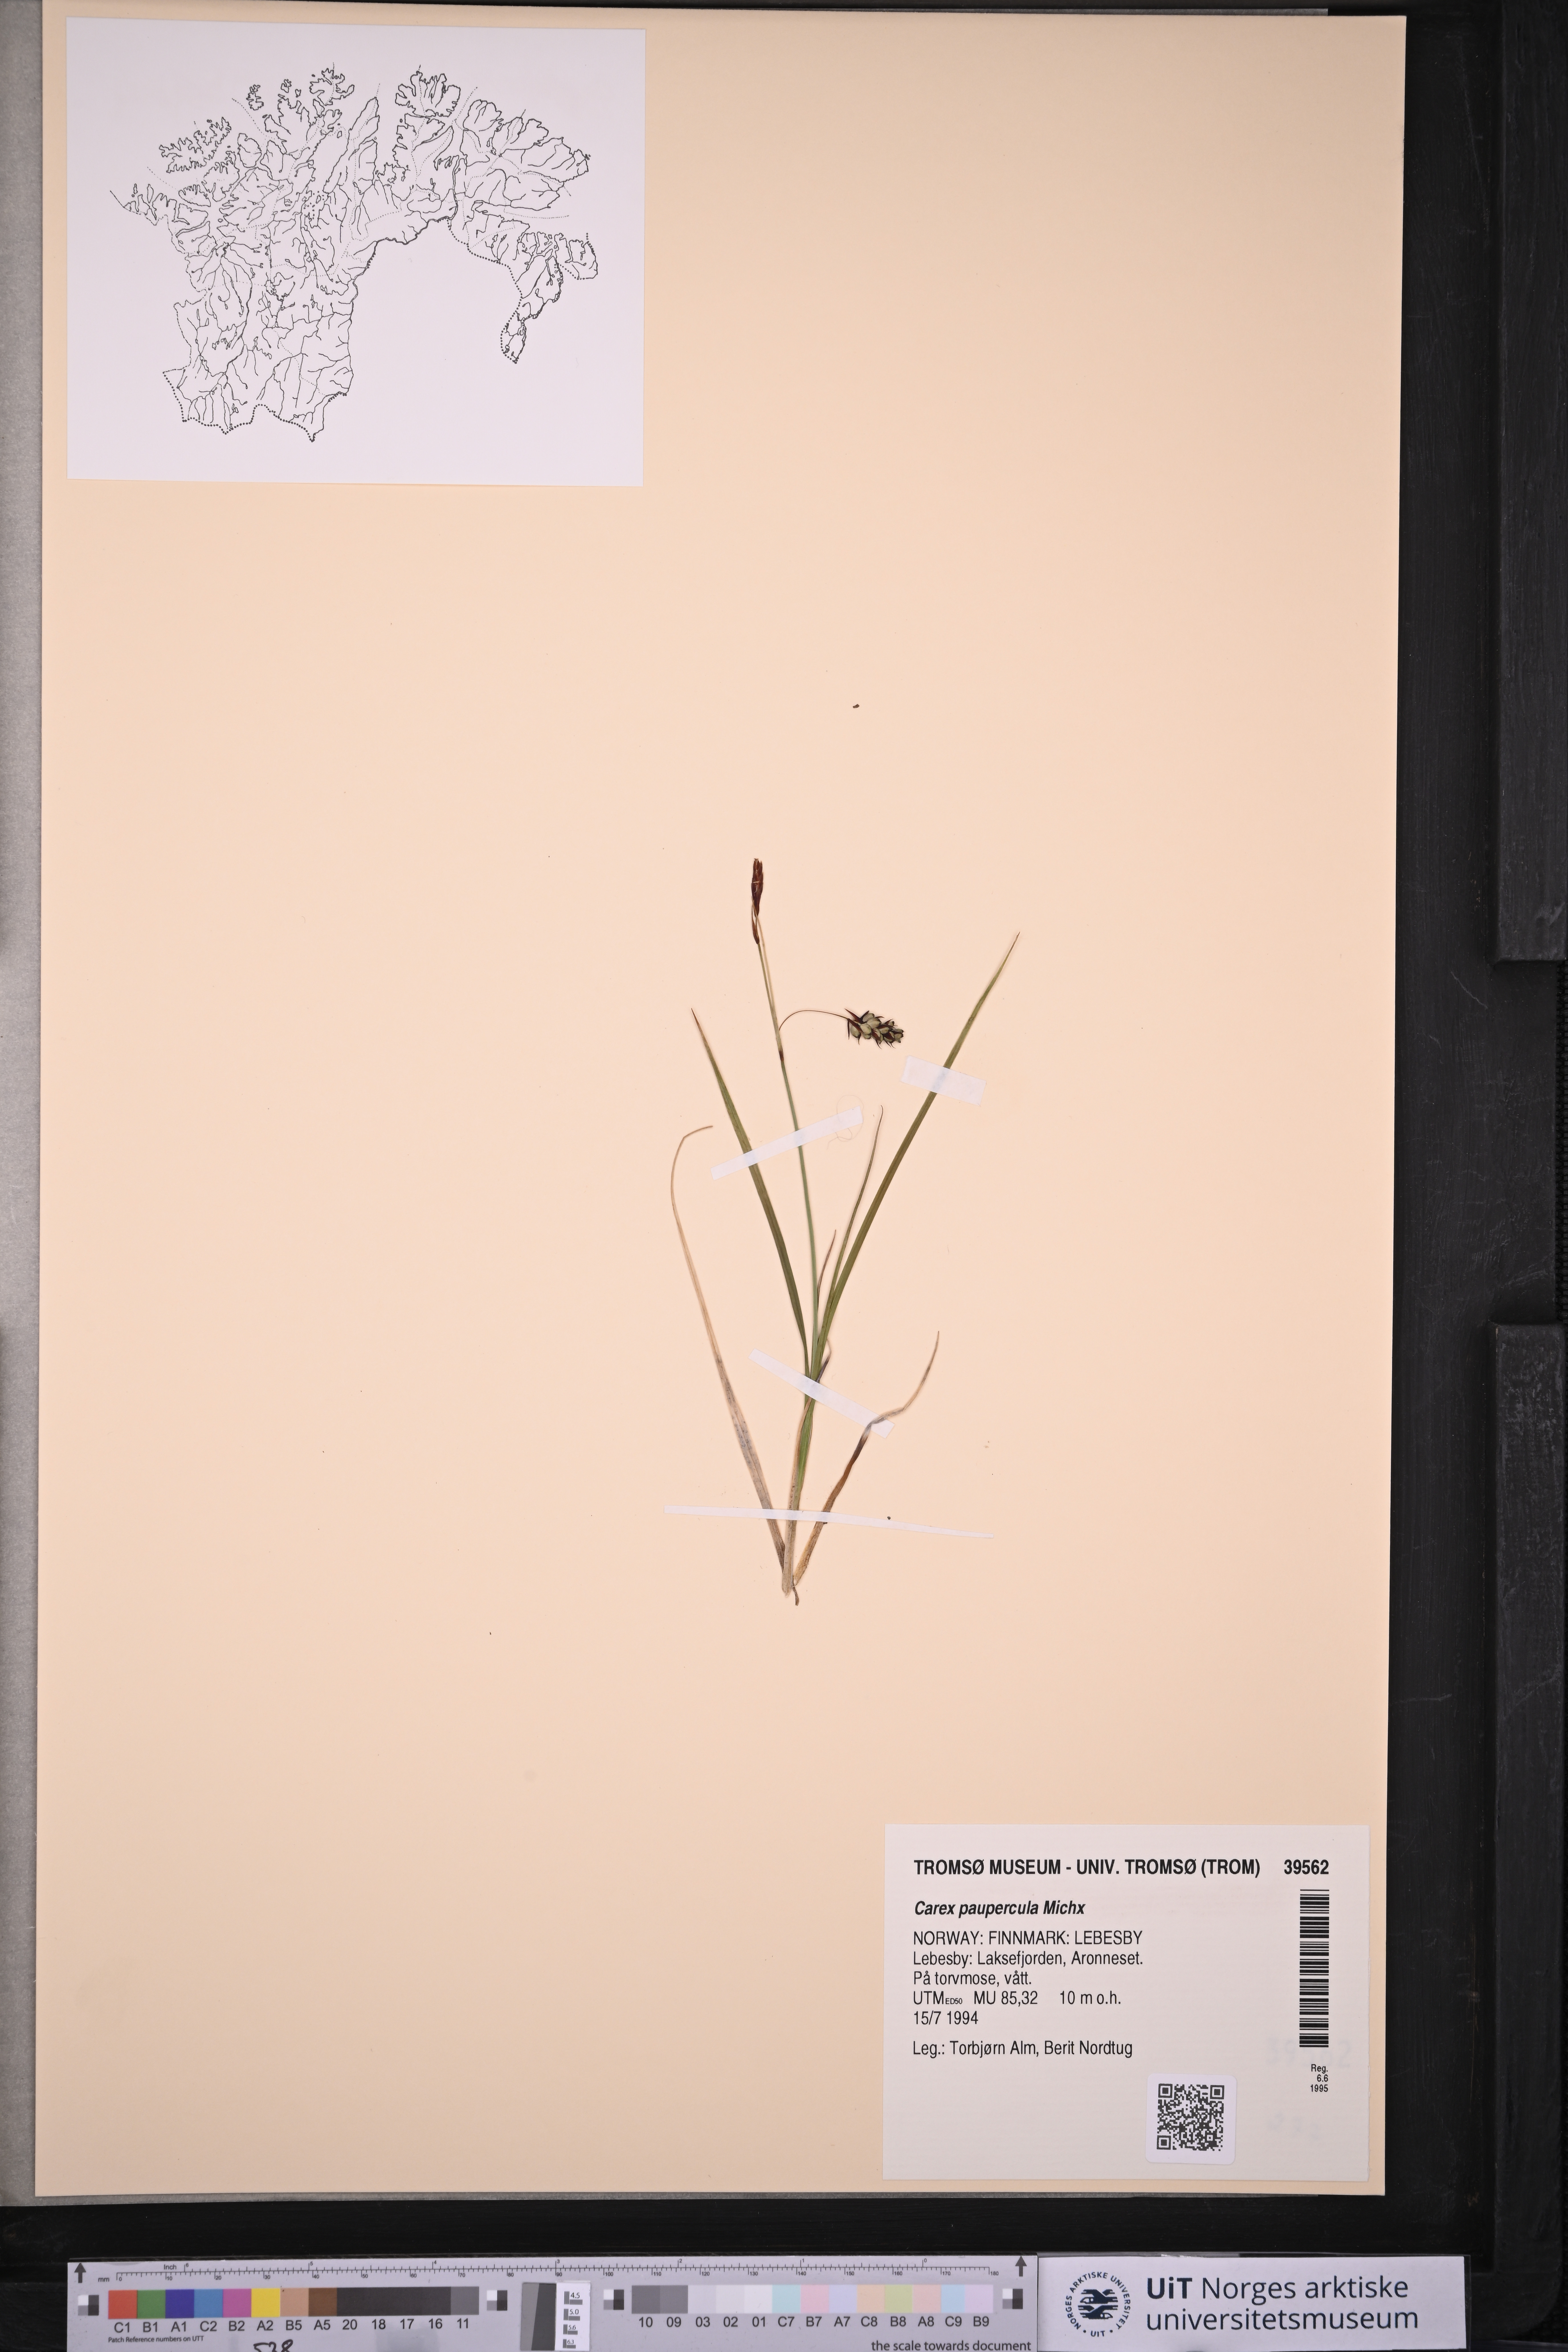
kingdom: Plantae
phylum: Tracheophyta
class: Liliopsida
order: Poales
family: Cyperaceae
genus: Carex
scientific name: Carex magellanica
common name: Bog sedge
